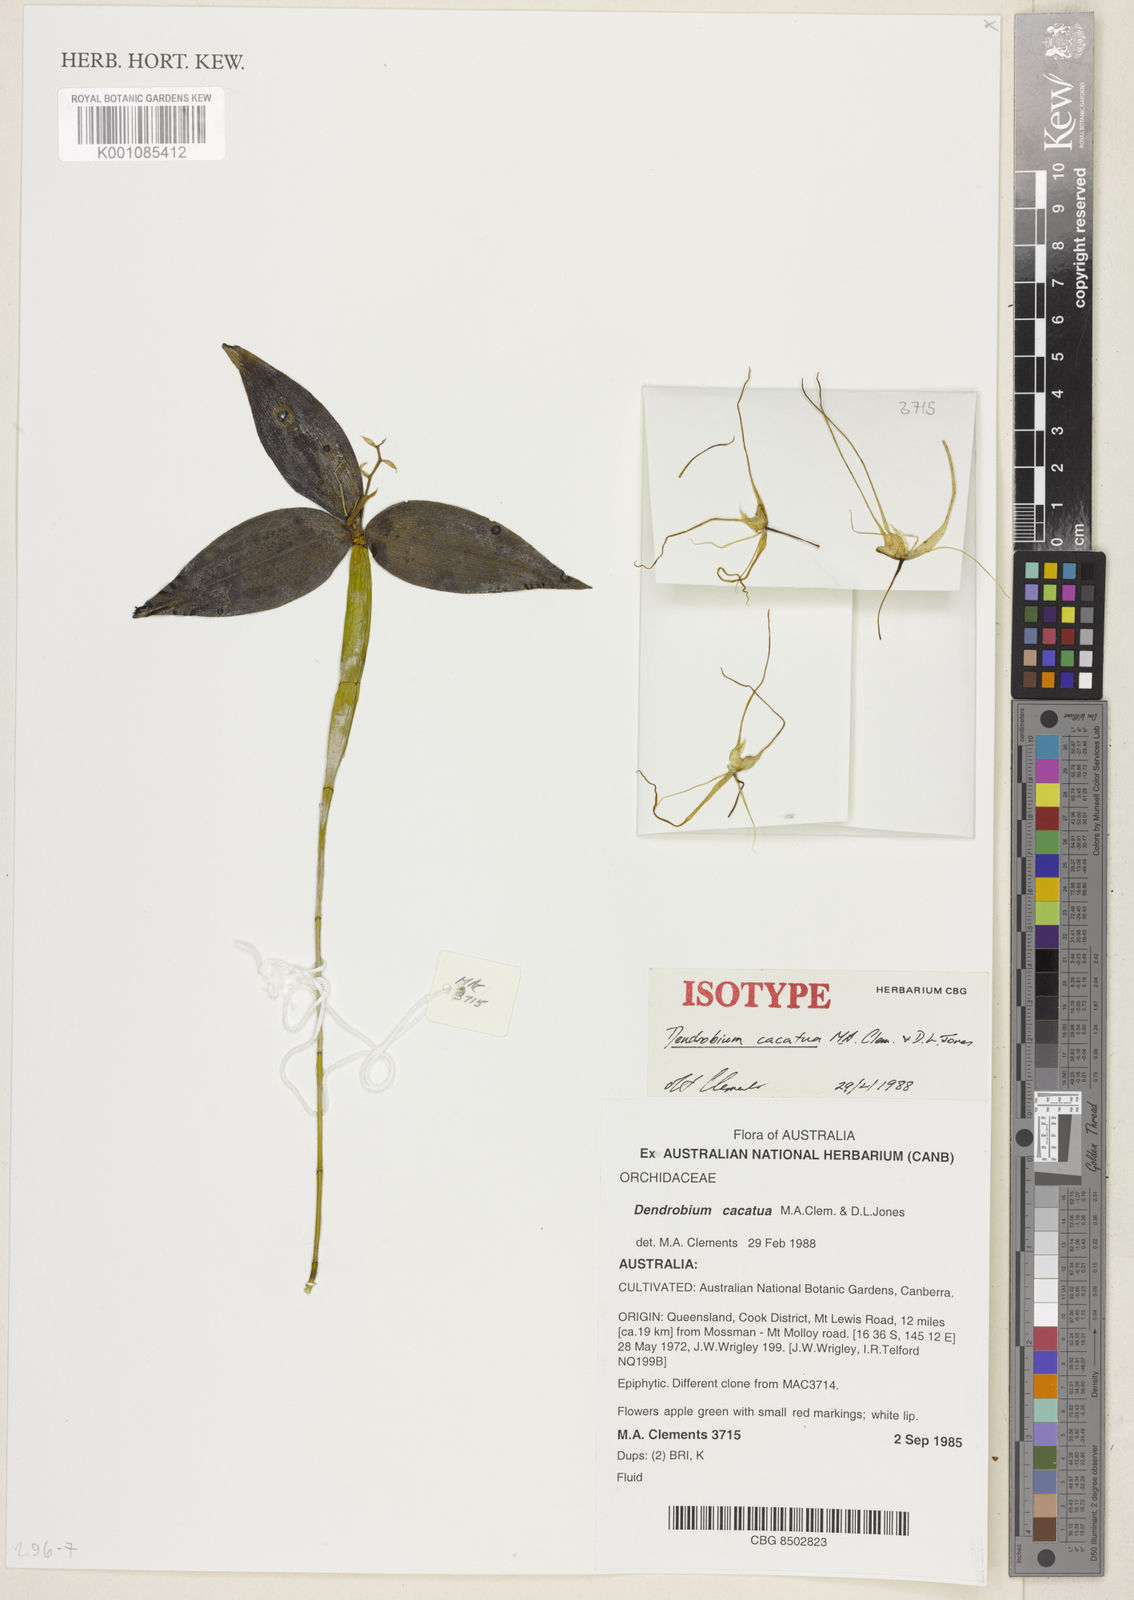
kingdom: Plantae
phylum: Tracheophyta
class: Liliopsida
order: Asparagales
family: Orchidaceae
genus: Dendrobium
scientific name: Dendrobium tetragonum
